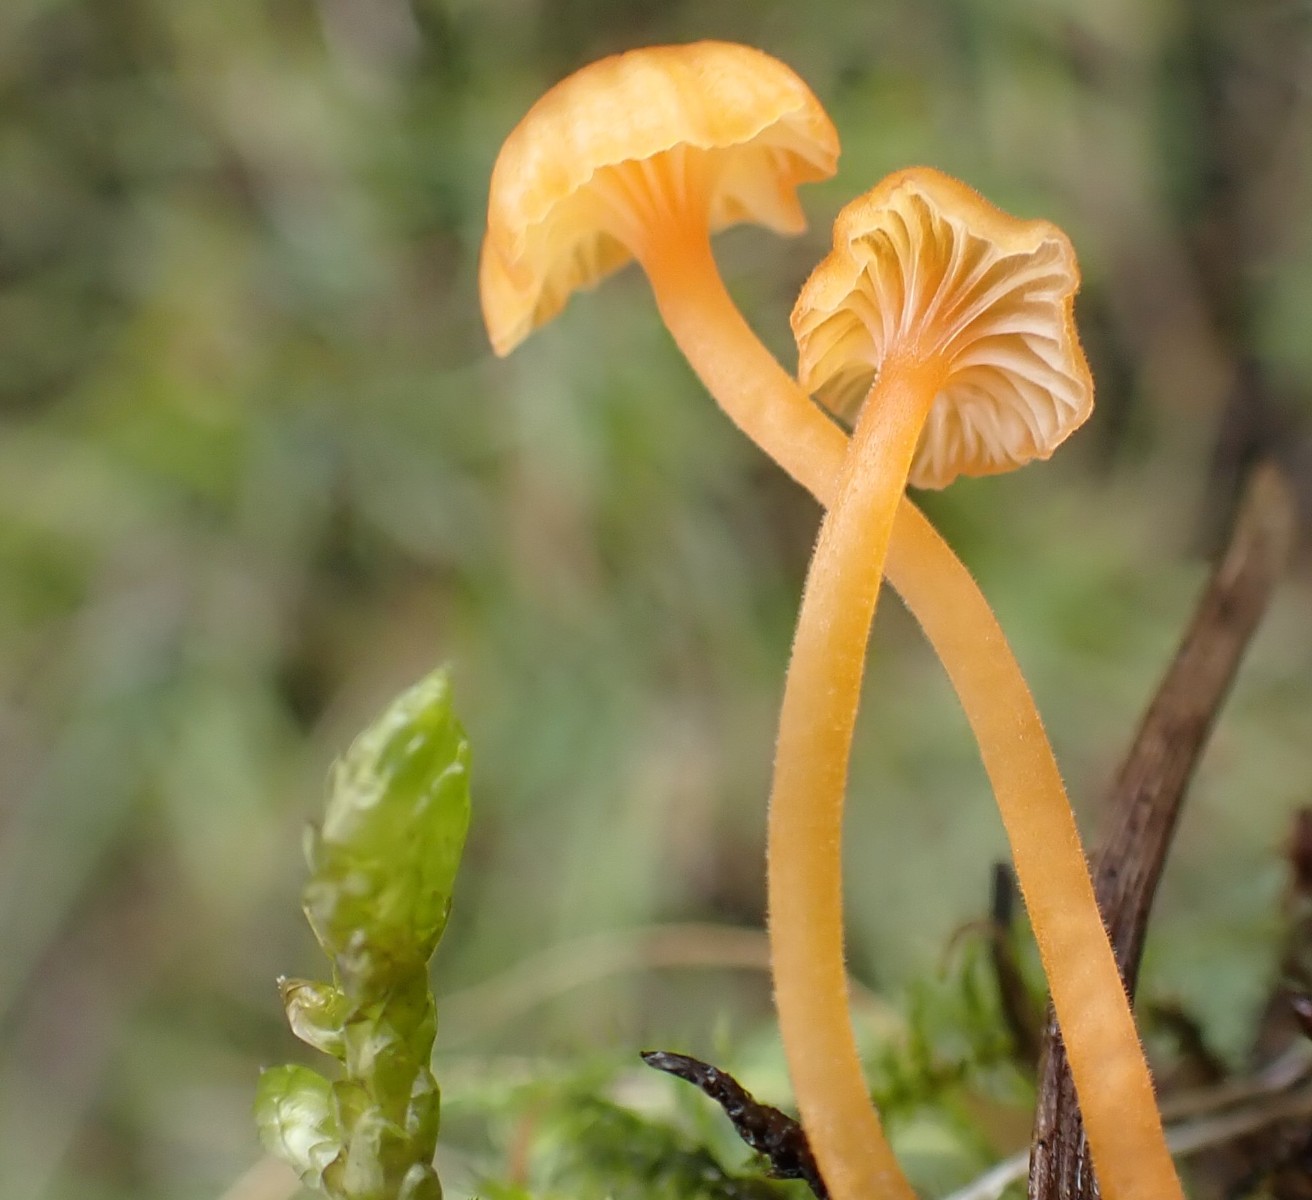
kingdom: Fungi
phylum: Basidiomycota
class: Agaricomycetes
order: Hymenochaetales
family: Rickenellaceae
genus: Rickenella
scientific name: Rickenella fibula
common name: orange mosnavlehat
